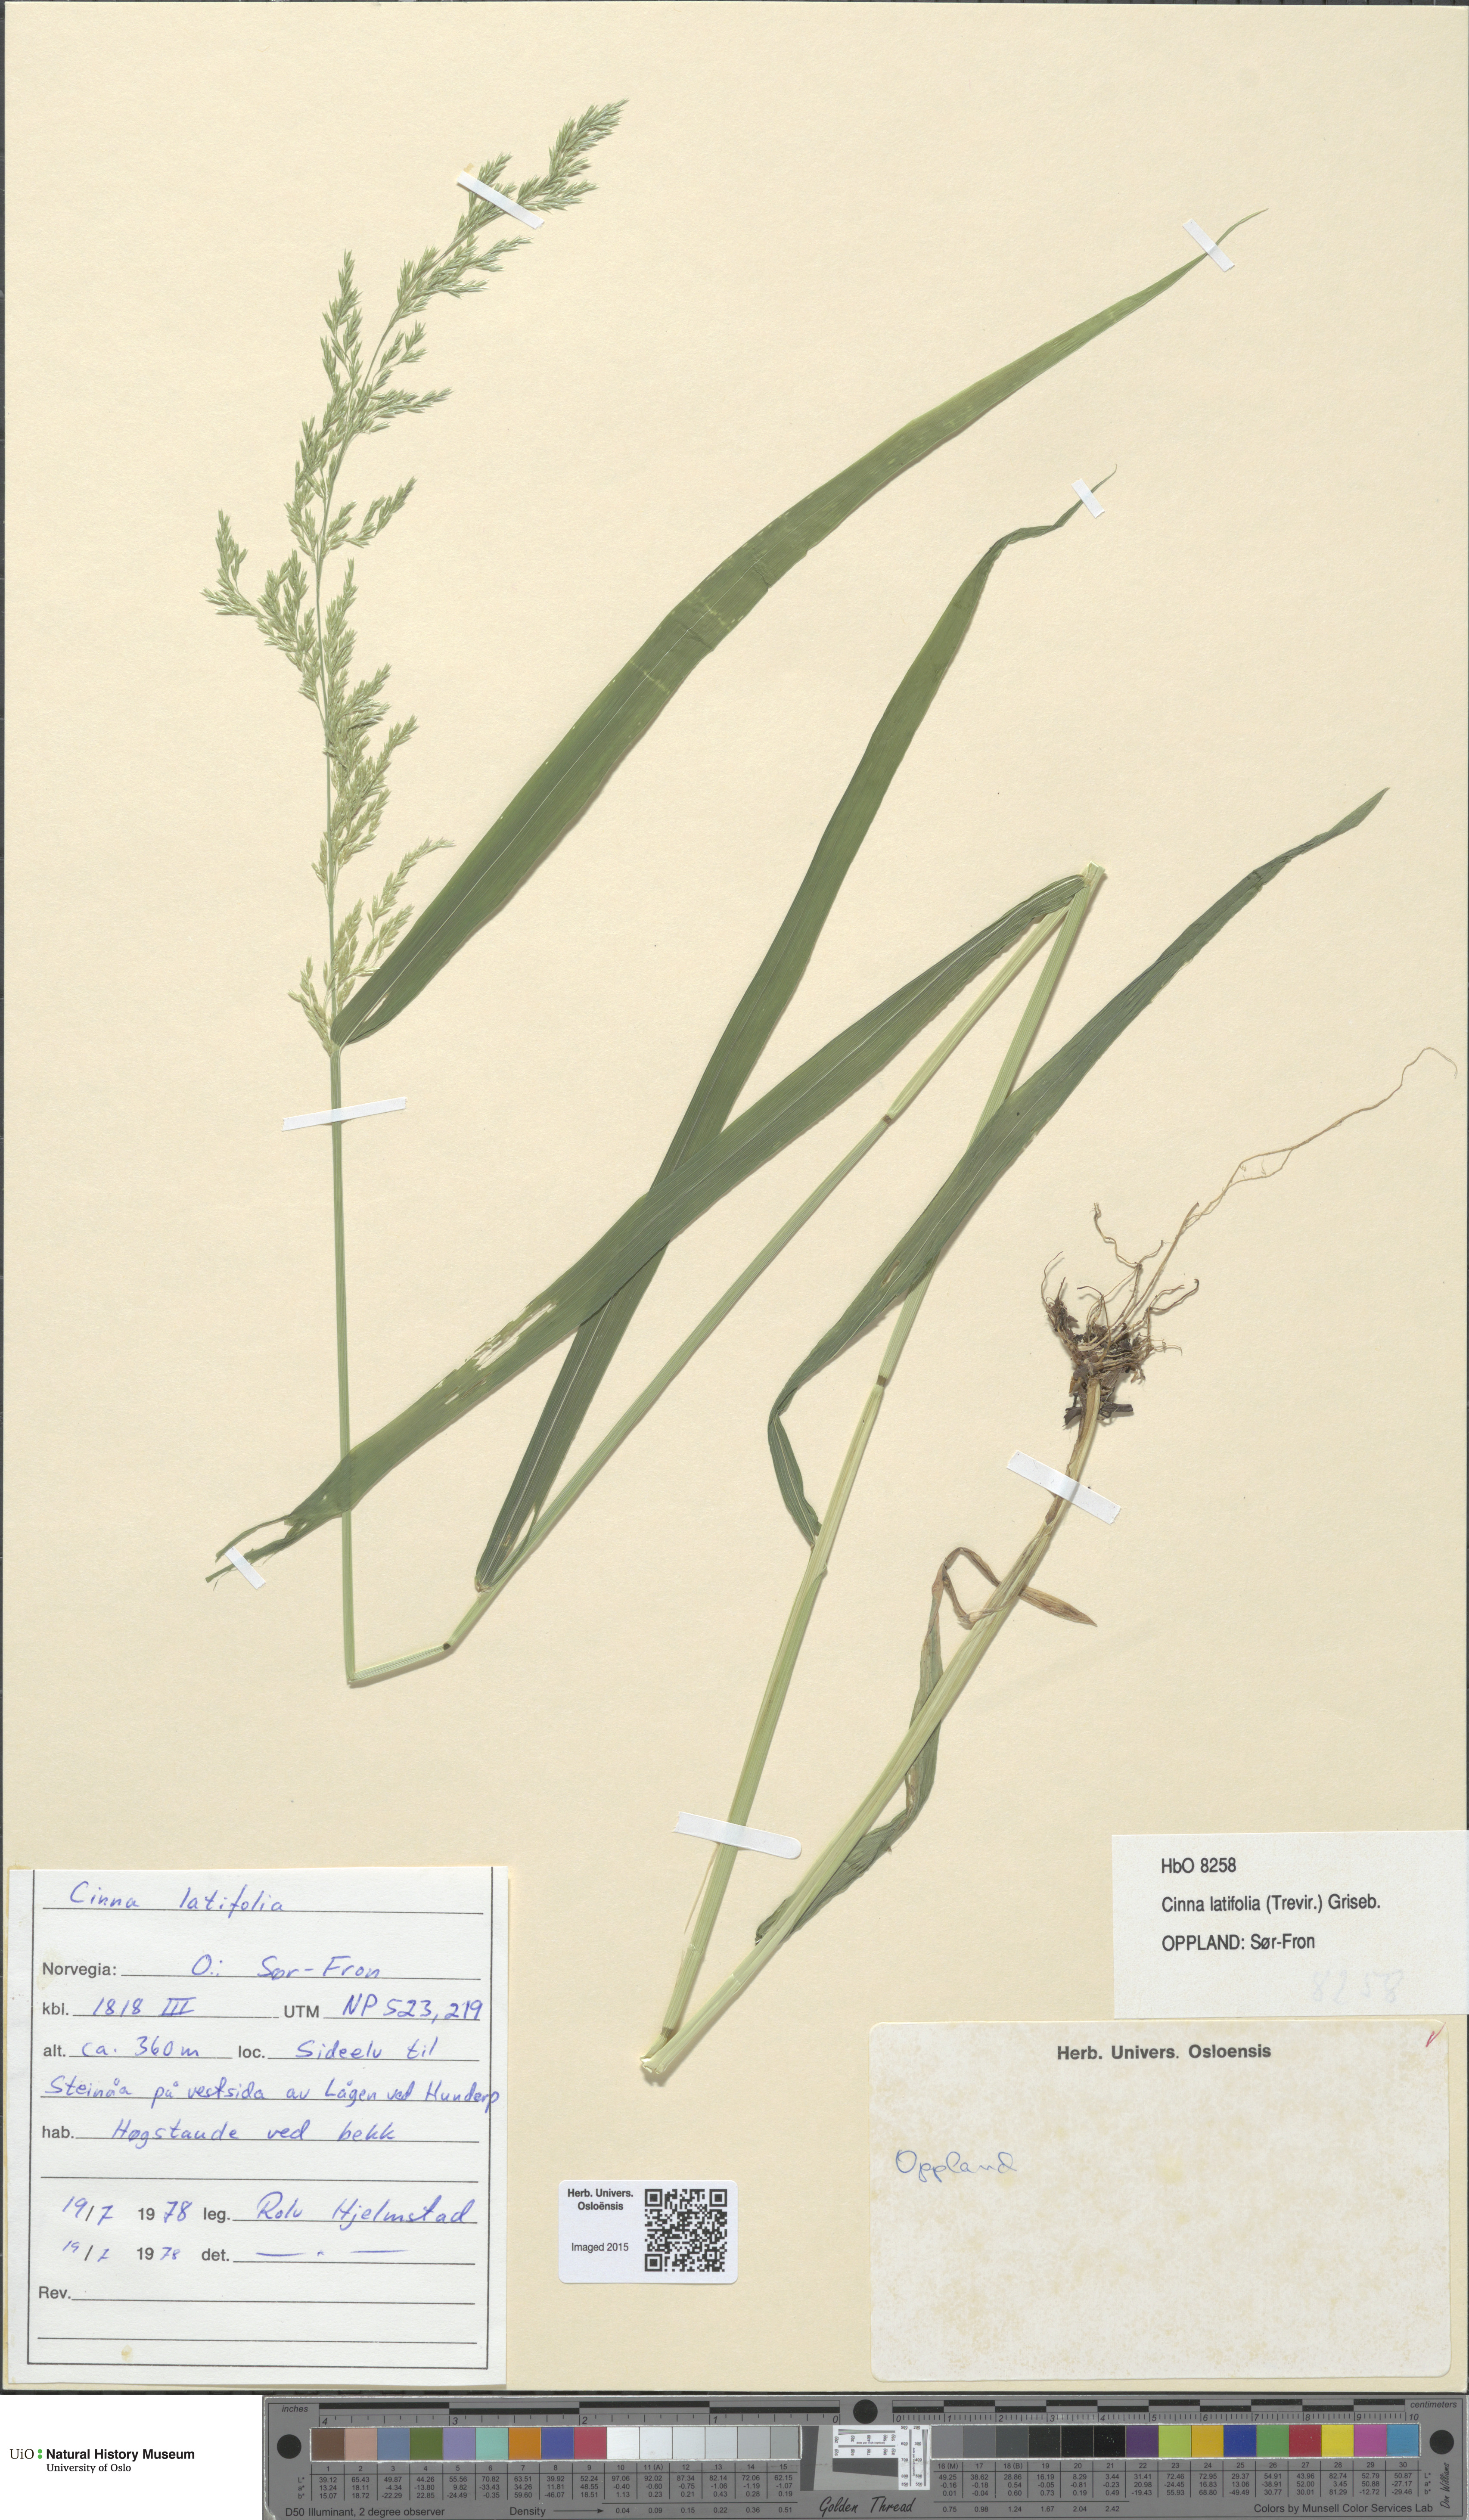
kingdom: Plantae
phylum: Tracheophyta
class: Liliopsida
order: Poales
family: Poaceae
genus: Cinna
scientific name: Cinna latifolia
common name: Drooping woodreed
